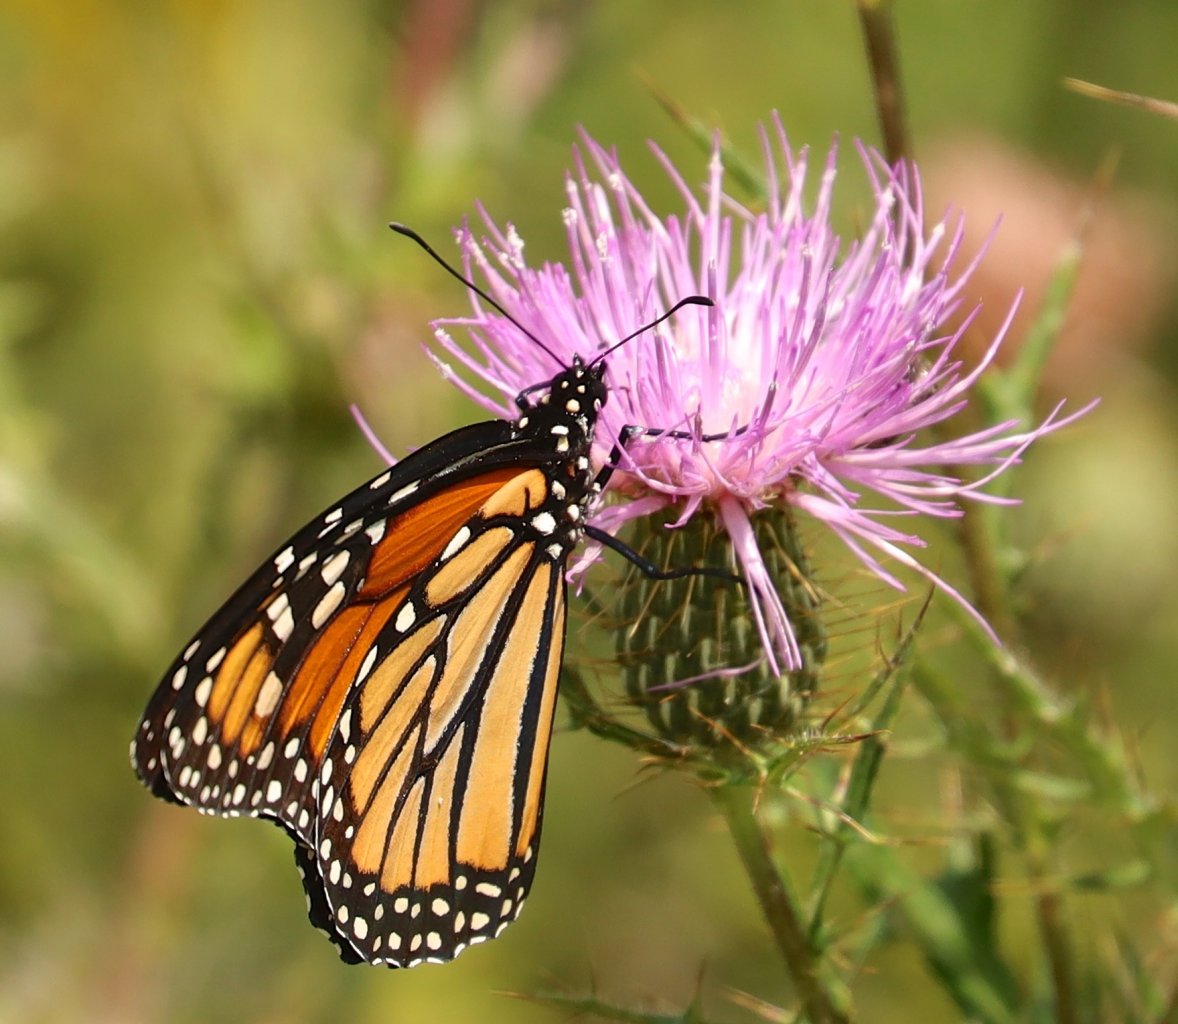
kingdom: Animalia
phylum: Arthropoda
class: Insecta
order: Lepidoptera
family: Nymphalidae
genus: Danaus
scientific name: Danaus plexippus
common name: Monarch
